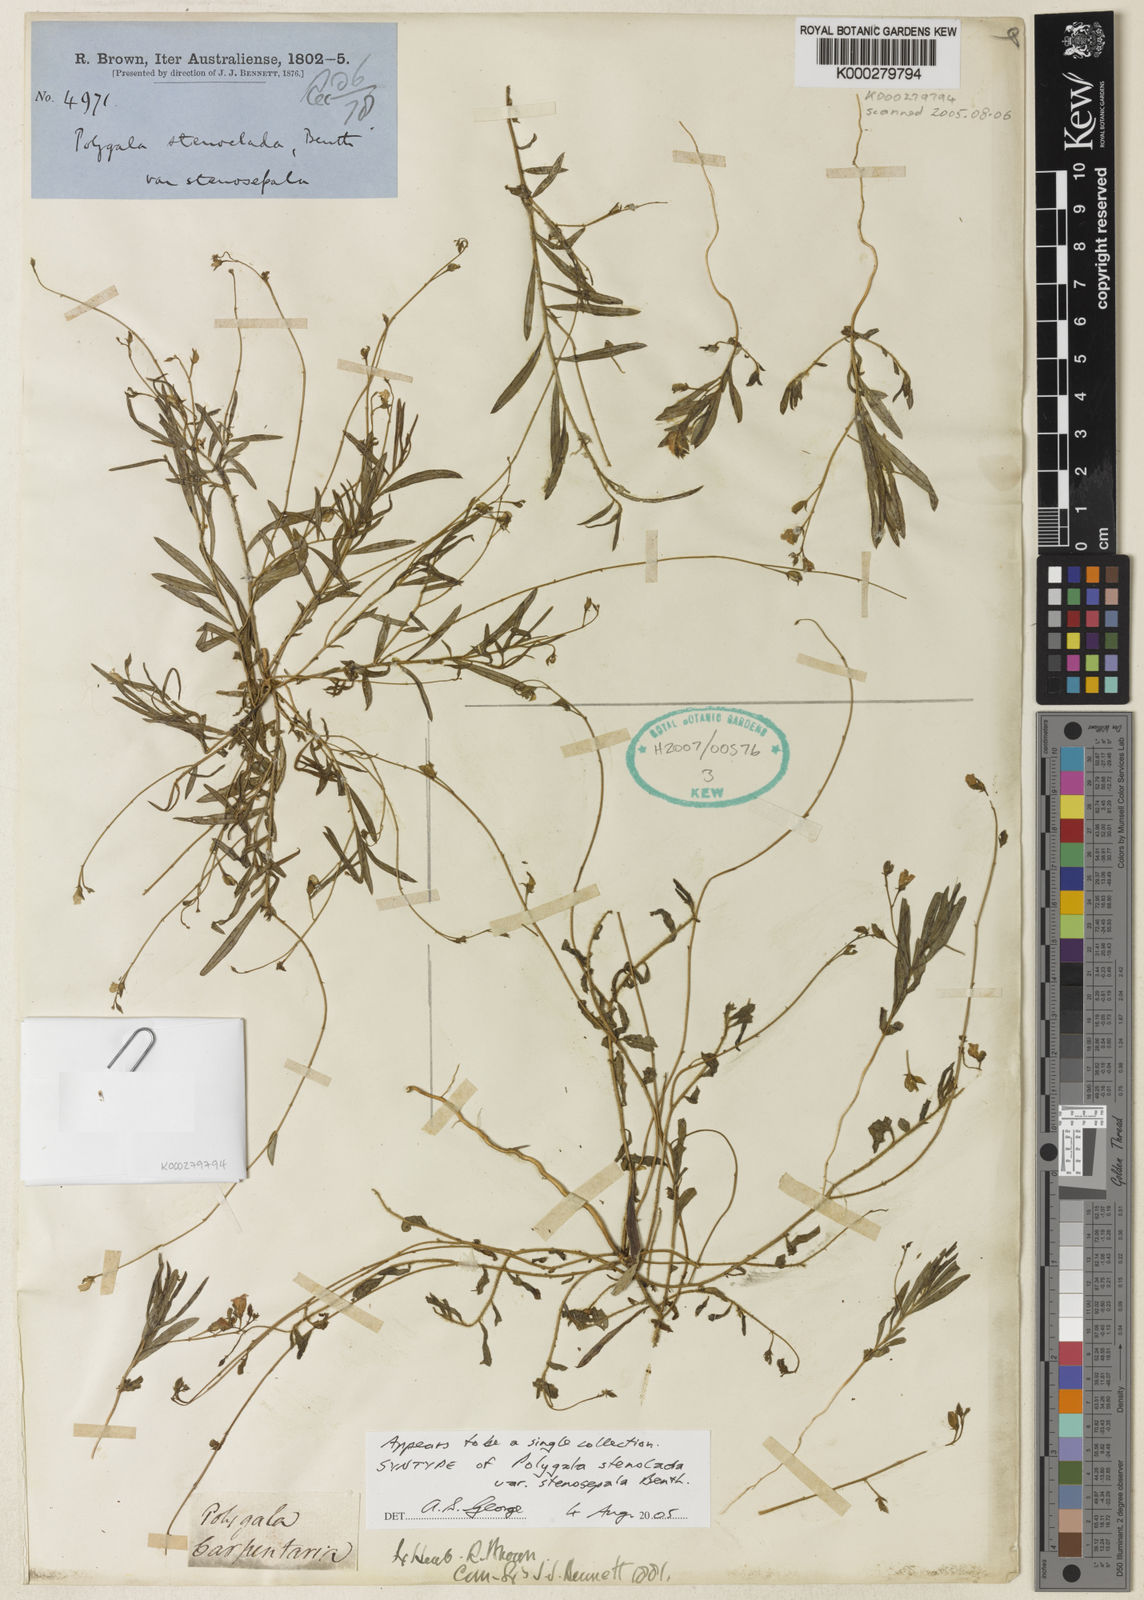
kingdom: Plantae
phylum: Tracheophyta
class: Magnoliopsida
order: Fabales
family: Polygalaceae
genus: Polygala
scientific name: Polygala
